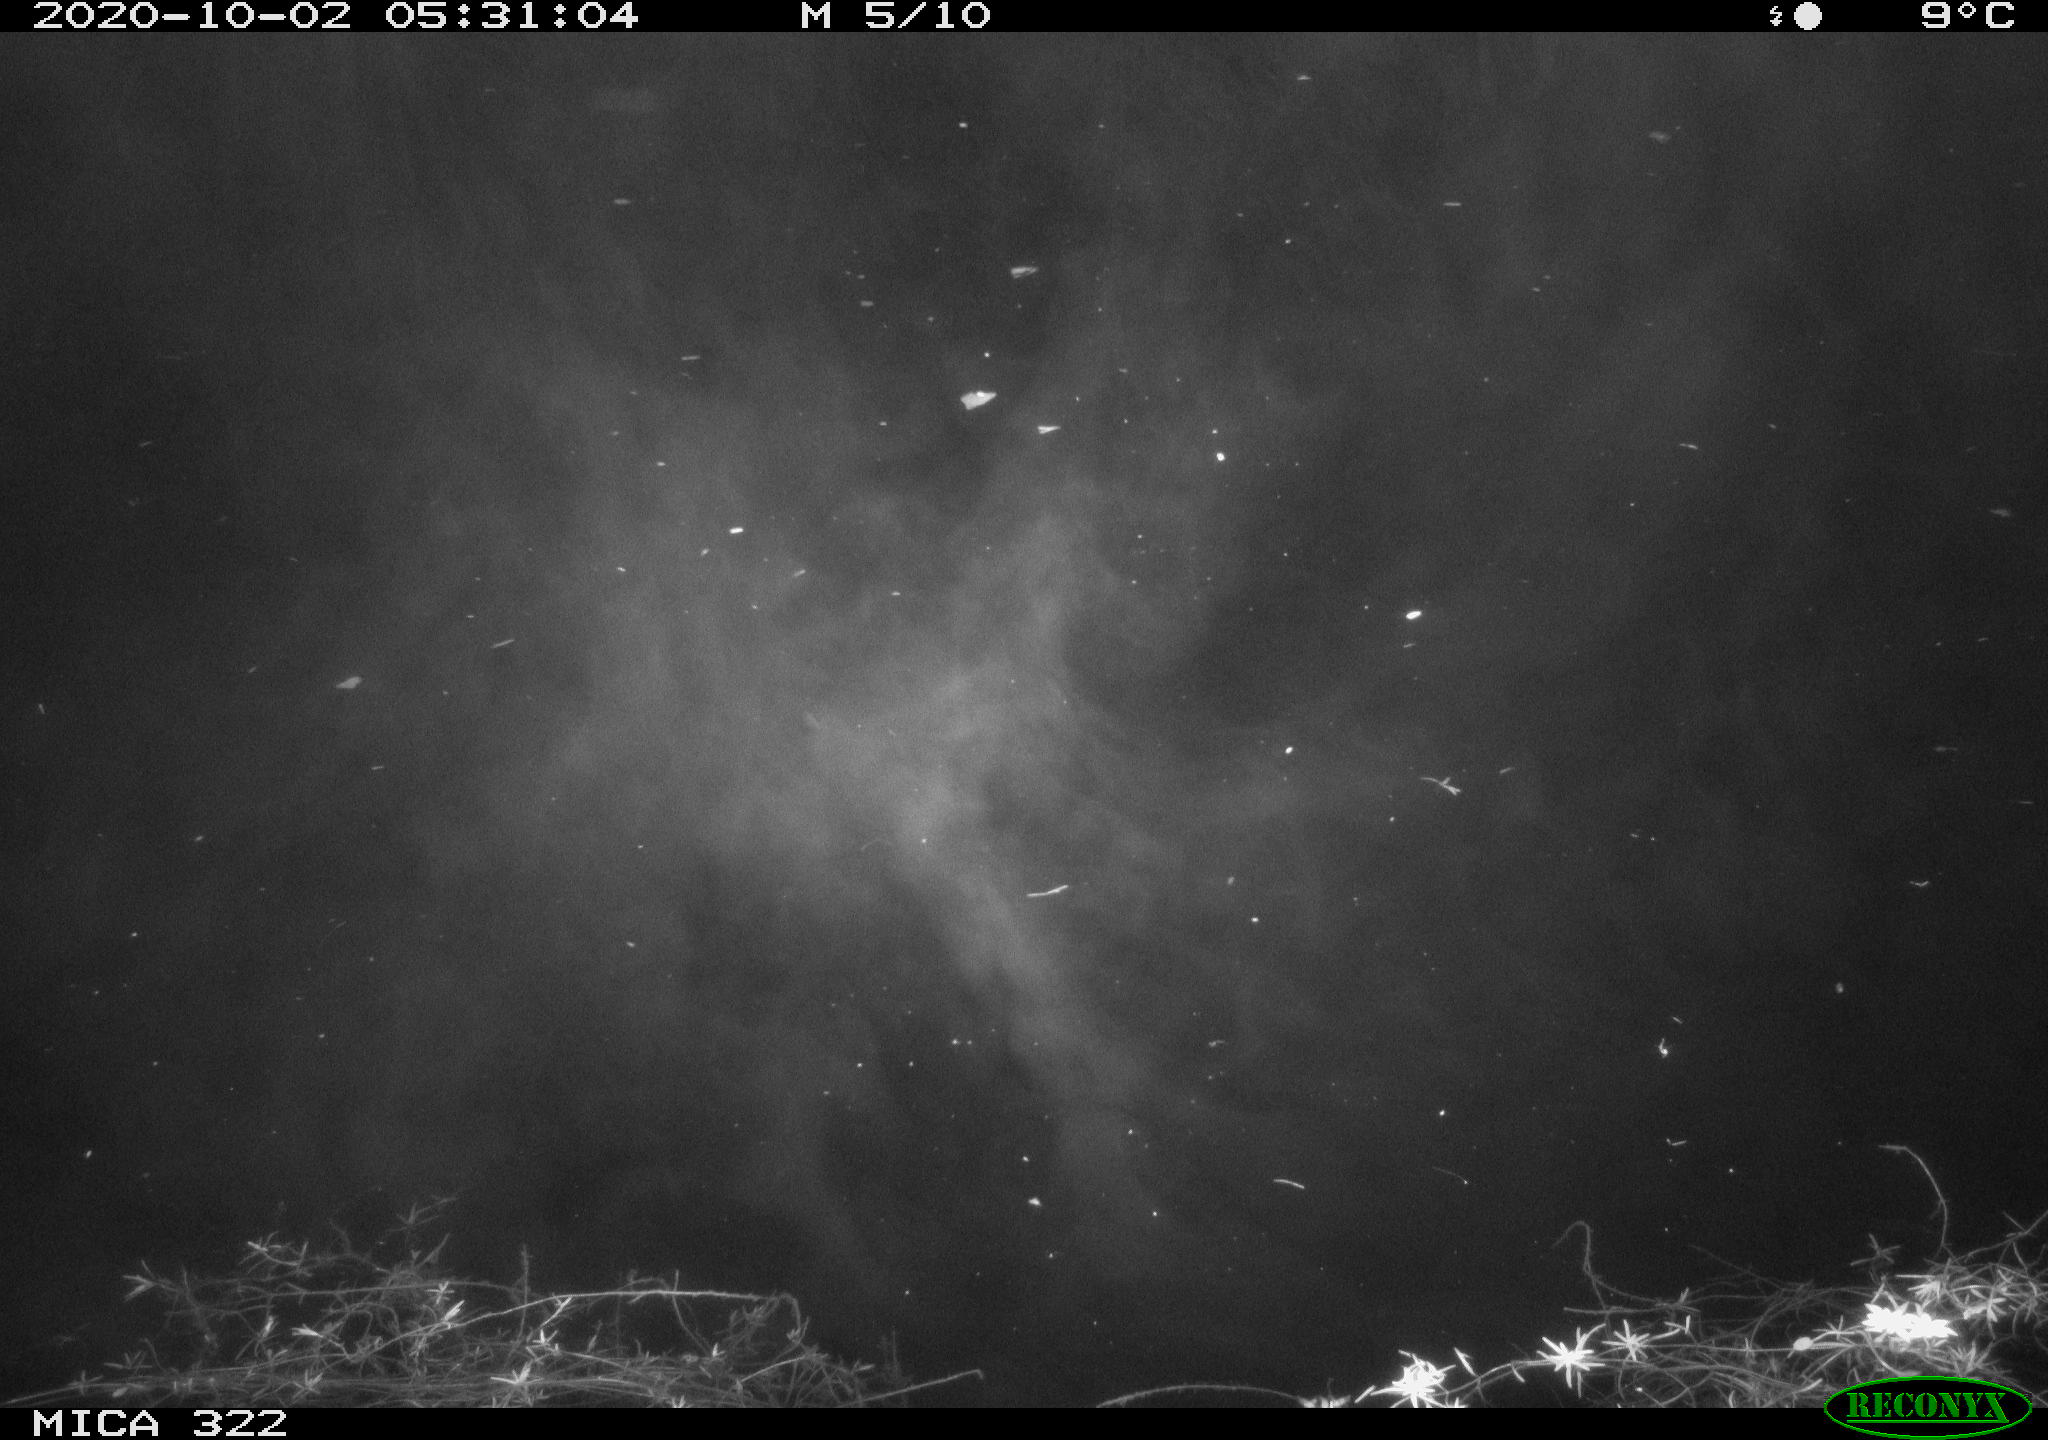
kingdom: Animalia
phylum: Chordata
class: Mammalia
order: Rodentia
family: Muridae
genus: Rattus
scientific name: Rattus norvegicus
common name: Brown rat
